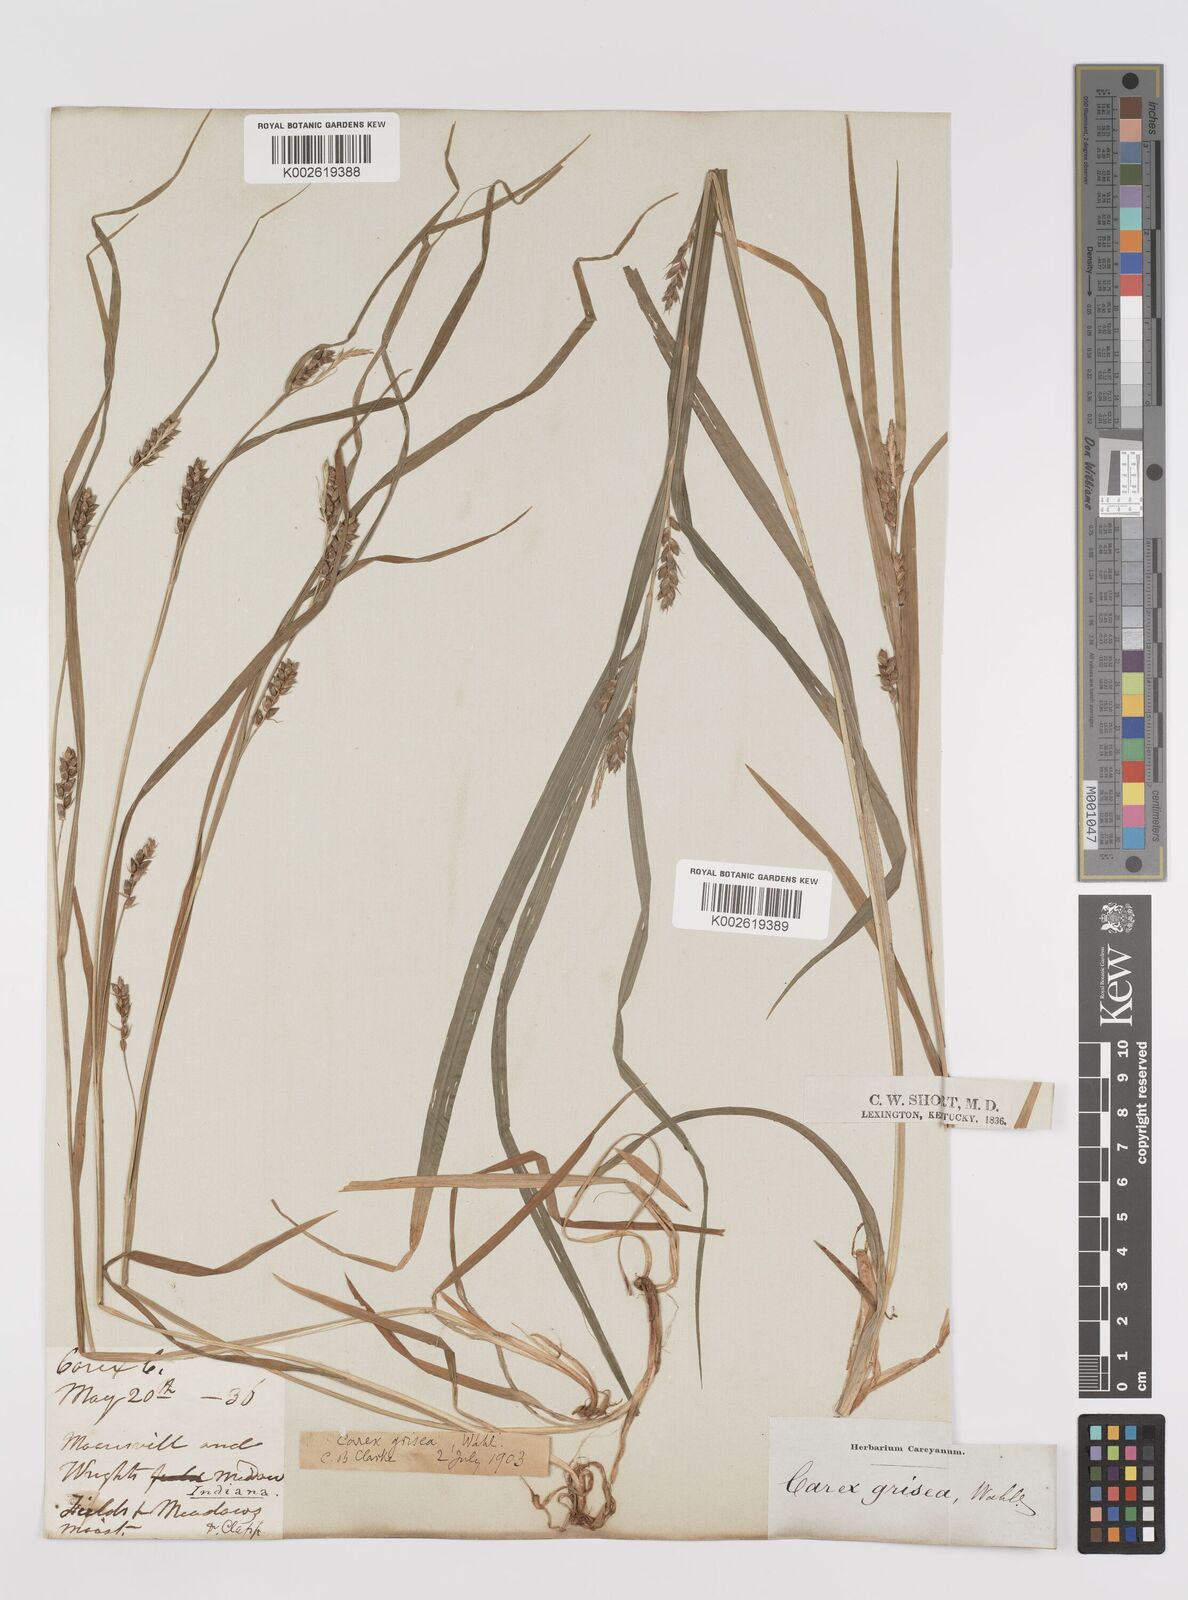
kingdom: Plantae
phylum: Tracheophyta
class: Liliopsida
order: Poales
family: Cyperaceae
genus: Carex
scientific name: Carex grisea
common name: Eastern narrow-leaved sedge
